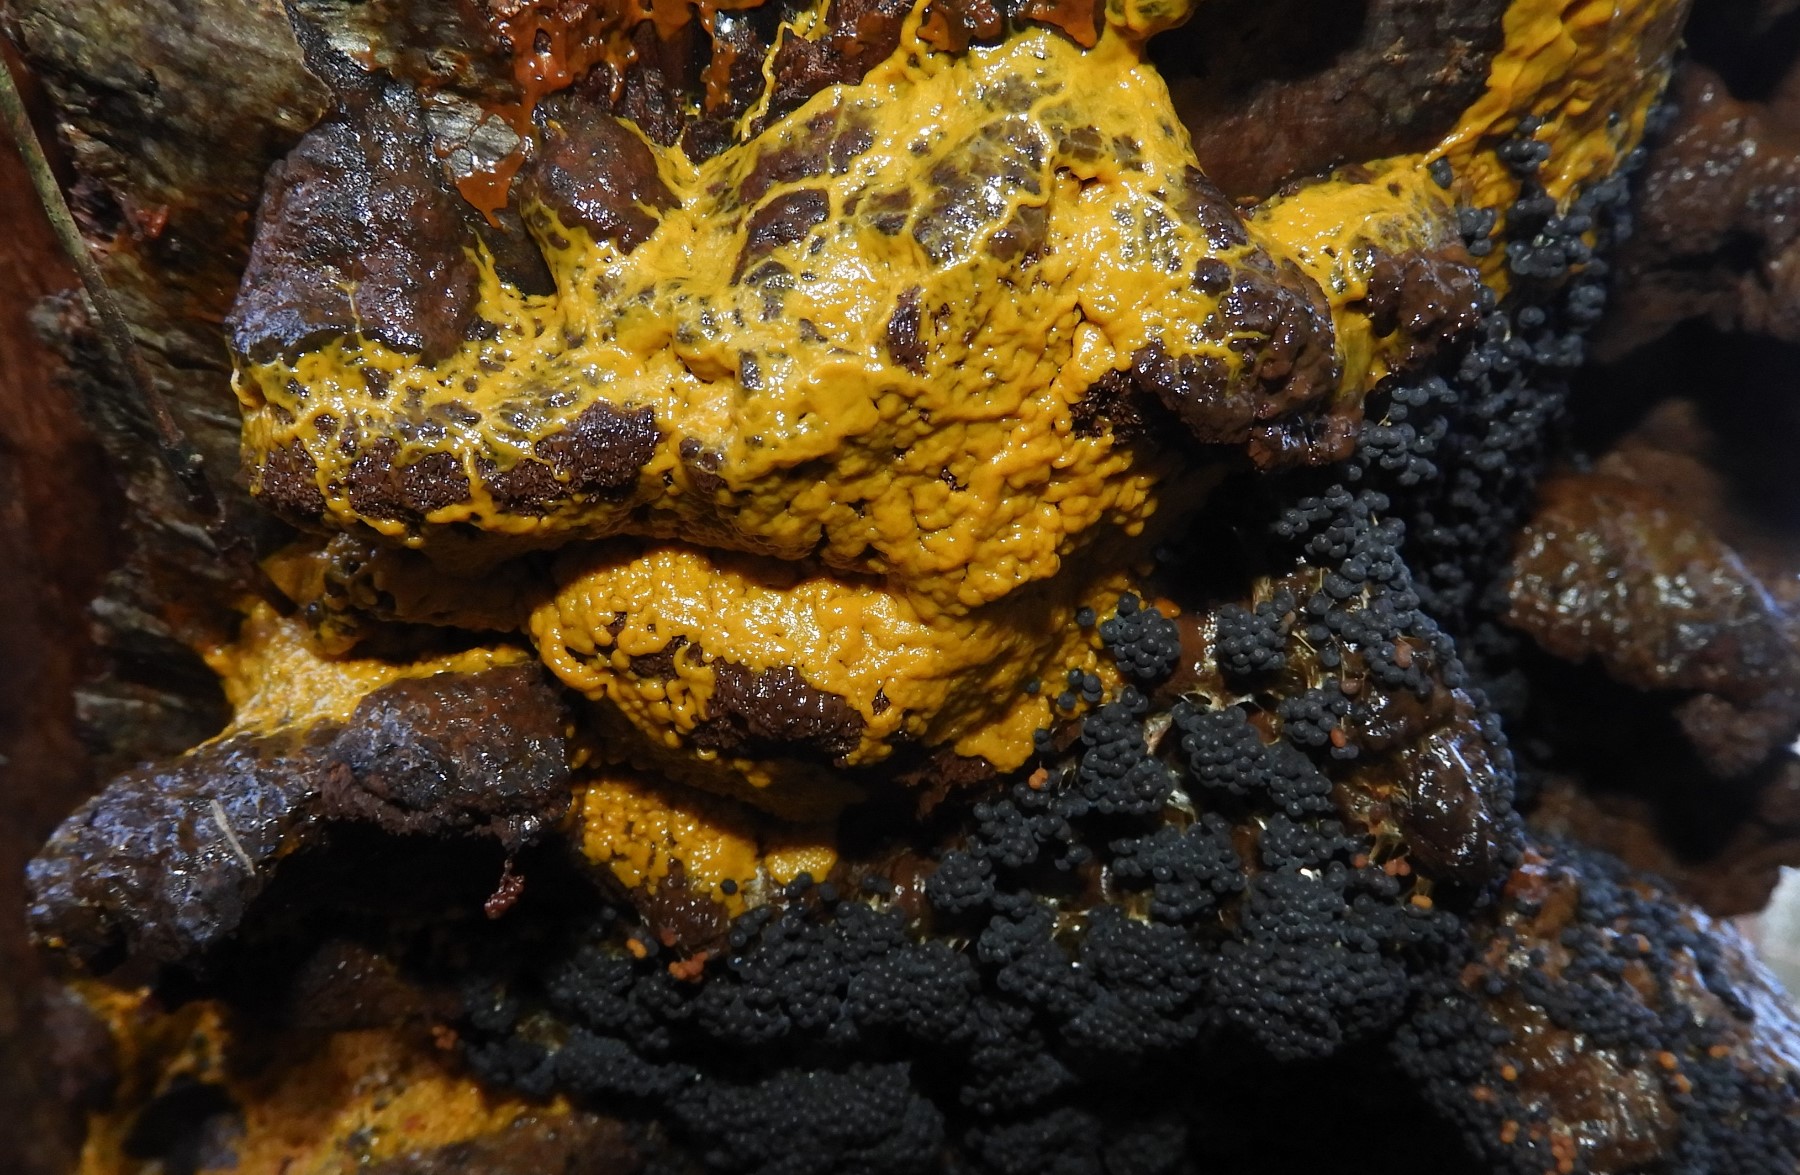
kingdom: Protozoa
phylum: Mycetozoa
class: Myxomycetes
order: Physarales
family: Physaraceae
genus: Badhamia
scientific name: Badhamia utricularis
